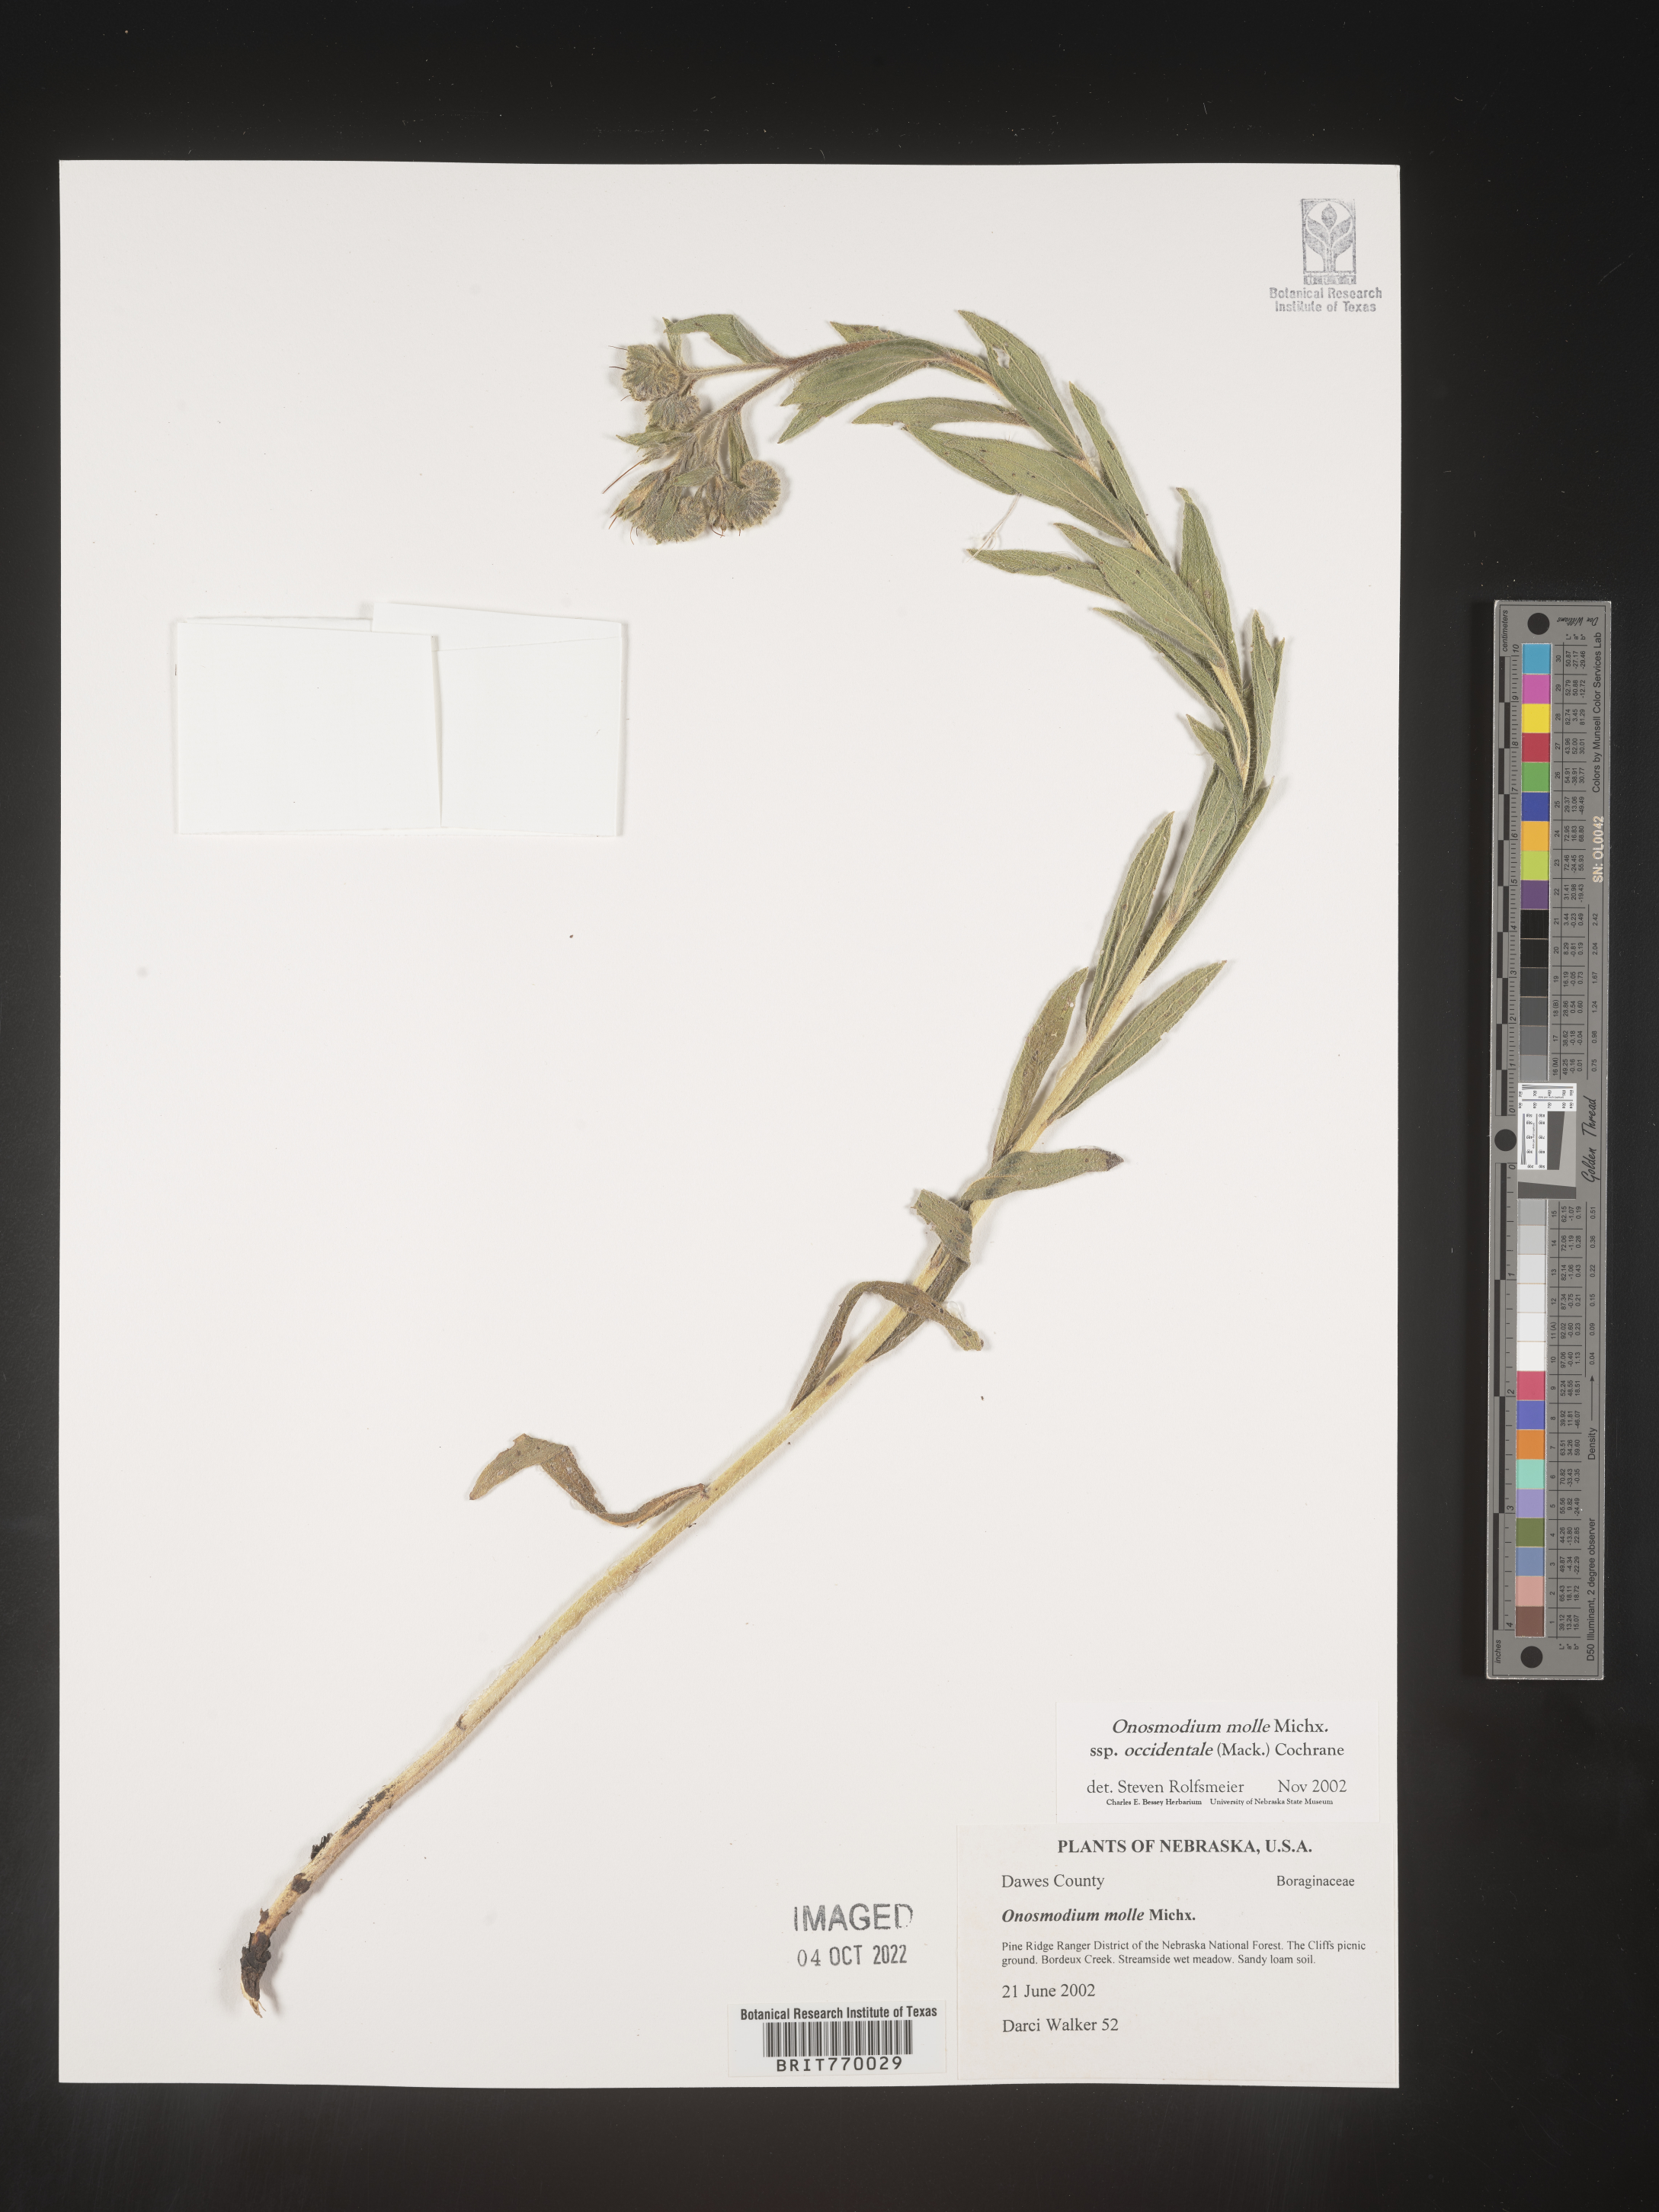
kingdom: Plantae
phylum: Tracheophyta
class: Magnoliopsida
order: Boraginales
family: Boraginaceae
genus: Lithospermum
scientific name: Lithospermum occidentale
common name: Western false gromwell
